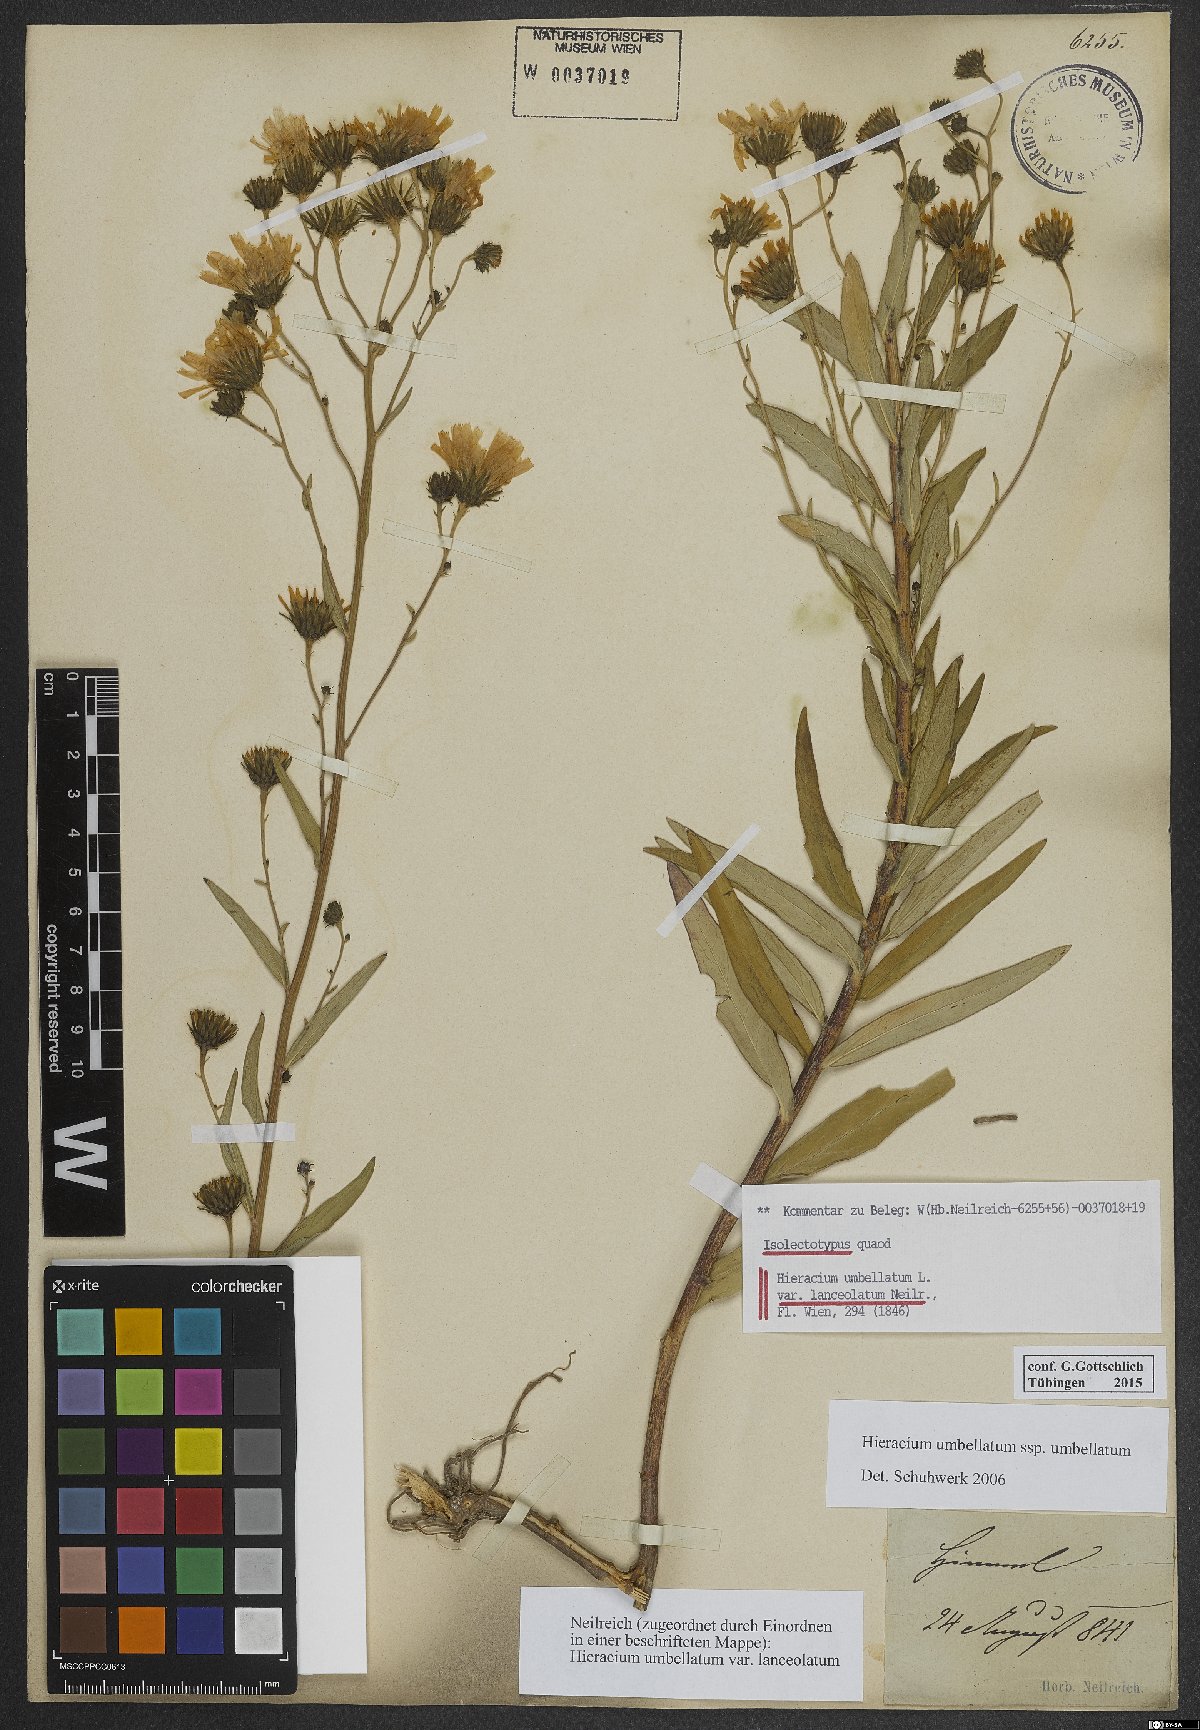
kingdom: Plantae
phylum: Tracheophyta
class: Magnoliopsida
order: Asterales
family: Asteraceae
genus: Hieracium
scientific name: Hieracium umbellatum
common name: Northern hawkweed
